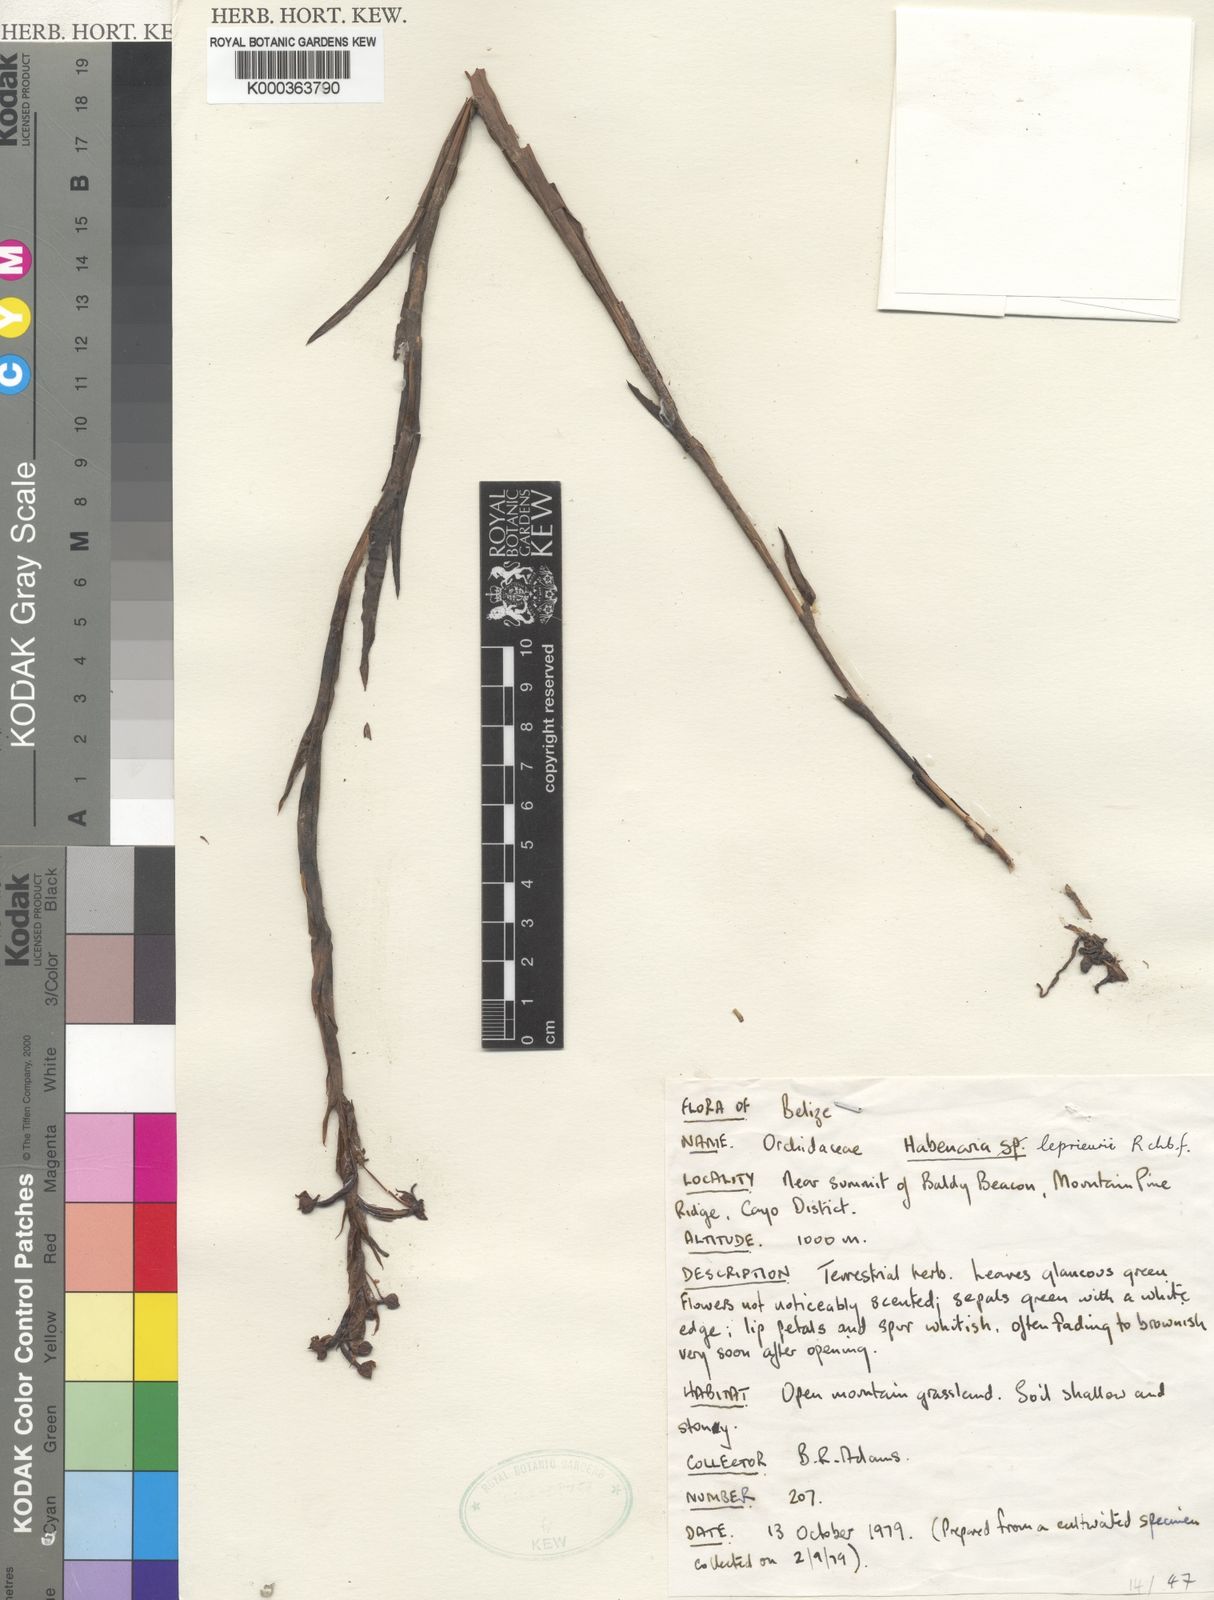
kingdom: Plantae
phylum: Tracheophyta
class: Liliopsida
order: Asparagales
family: Orchidaceae
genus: Habenaria
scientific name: Habenaria leprieurii
